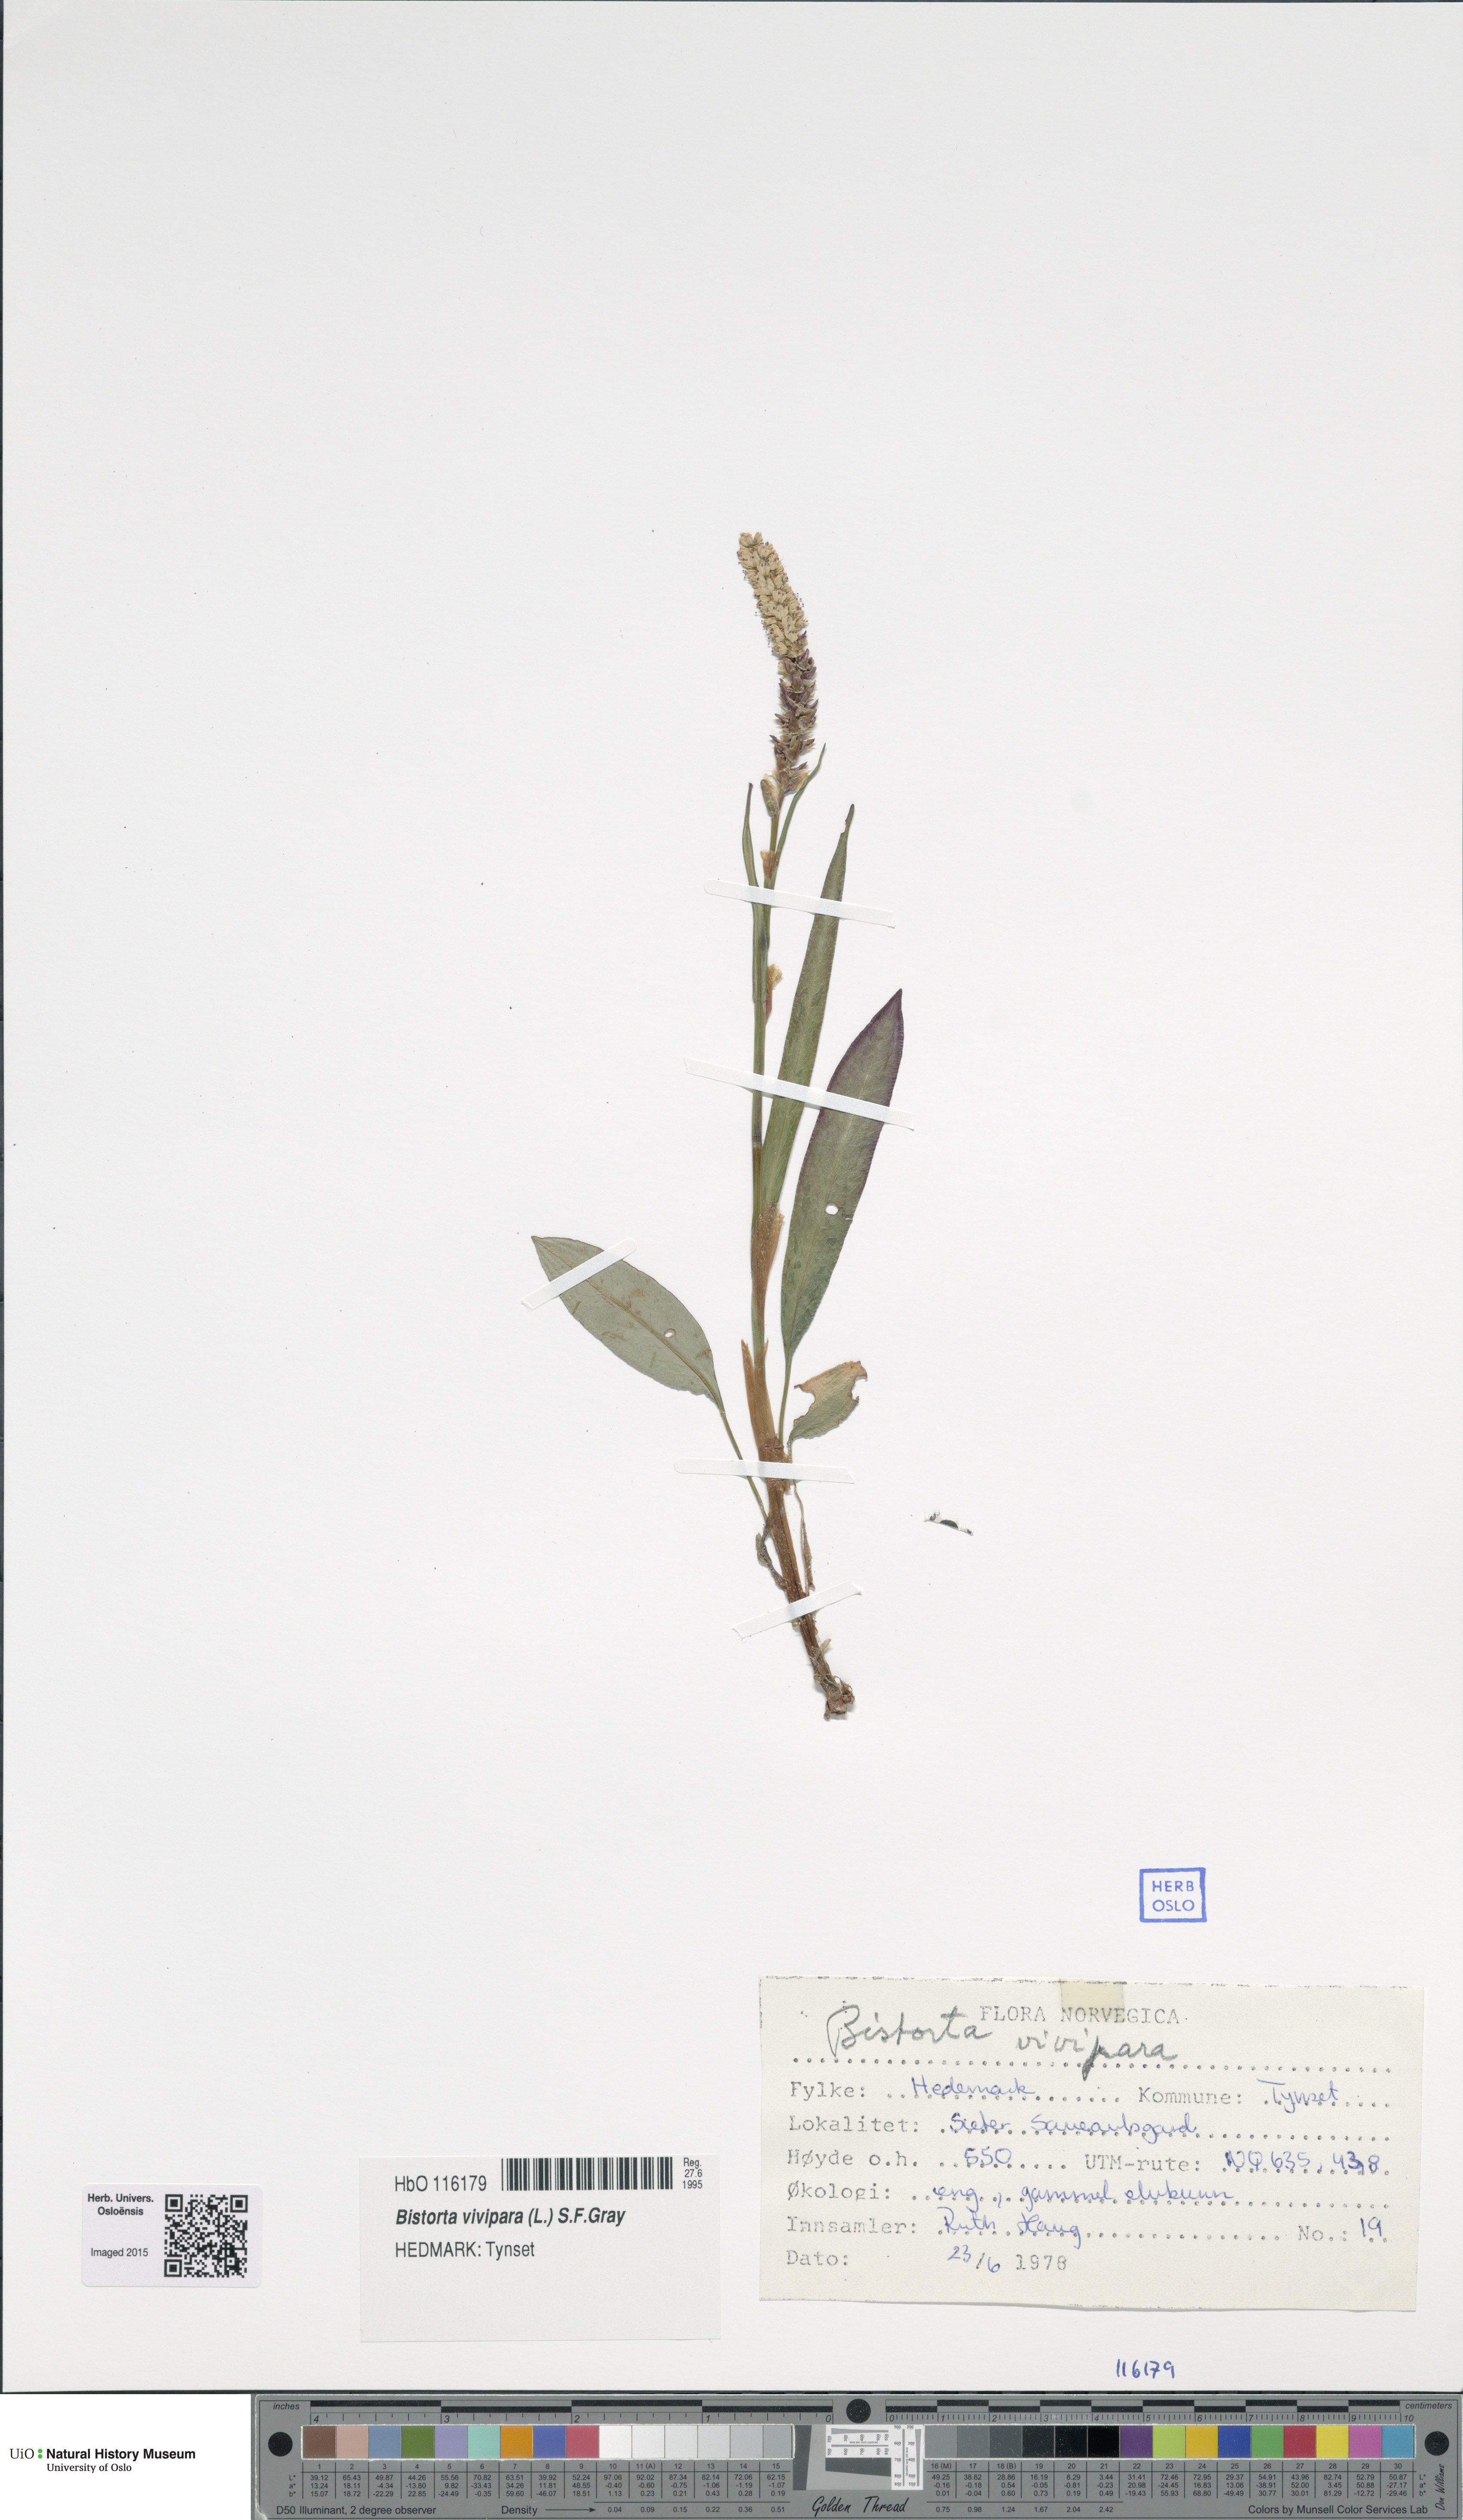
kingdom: Plantae
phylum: Tracheophyta
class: Magnoliopsida
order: Caryophyllales
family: Polygonaceae
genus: Bistorta
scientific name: Bistorta vivipara
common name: Alpine bistort
